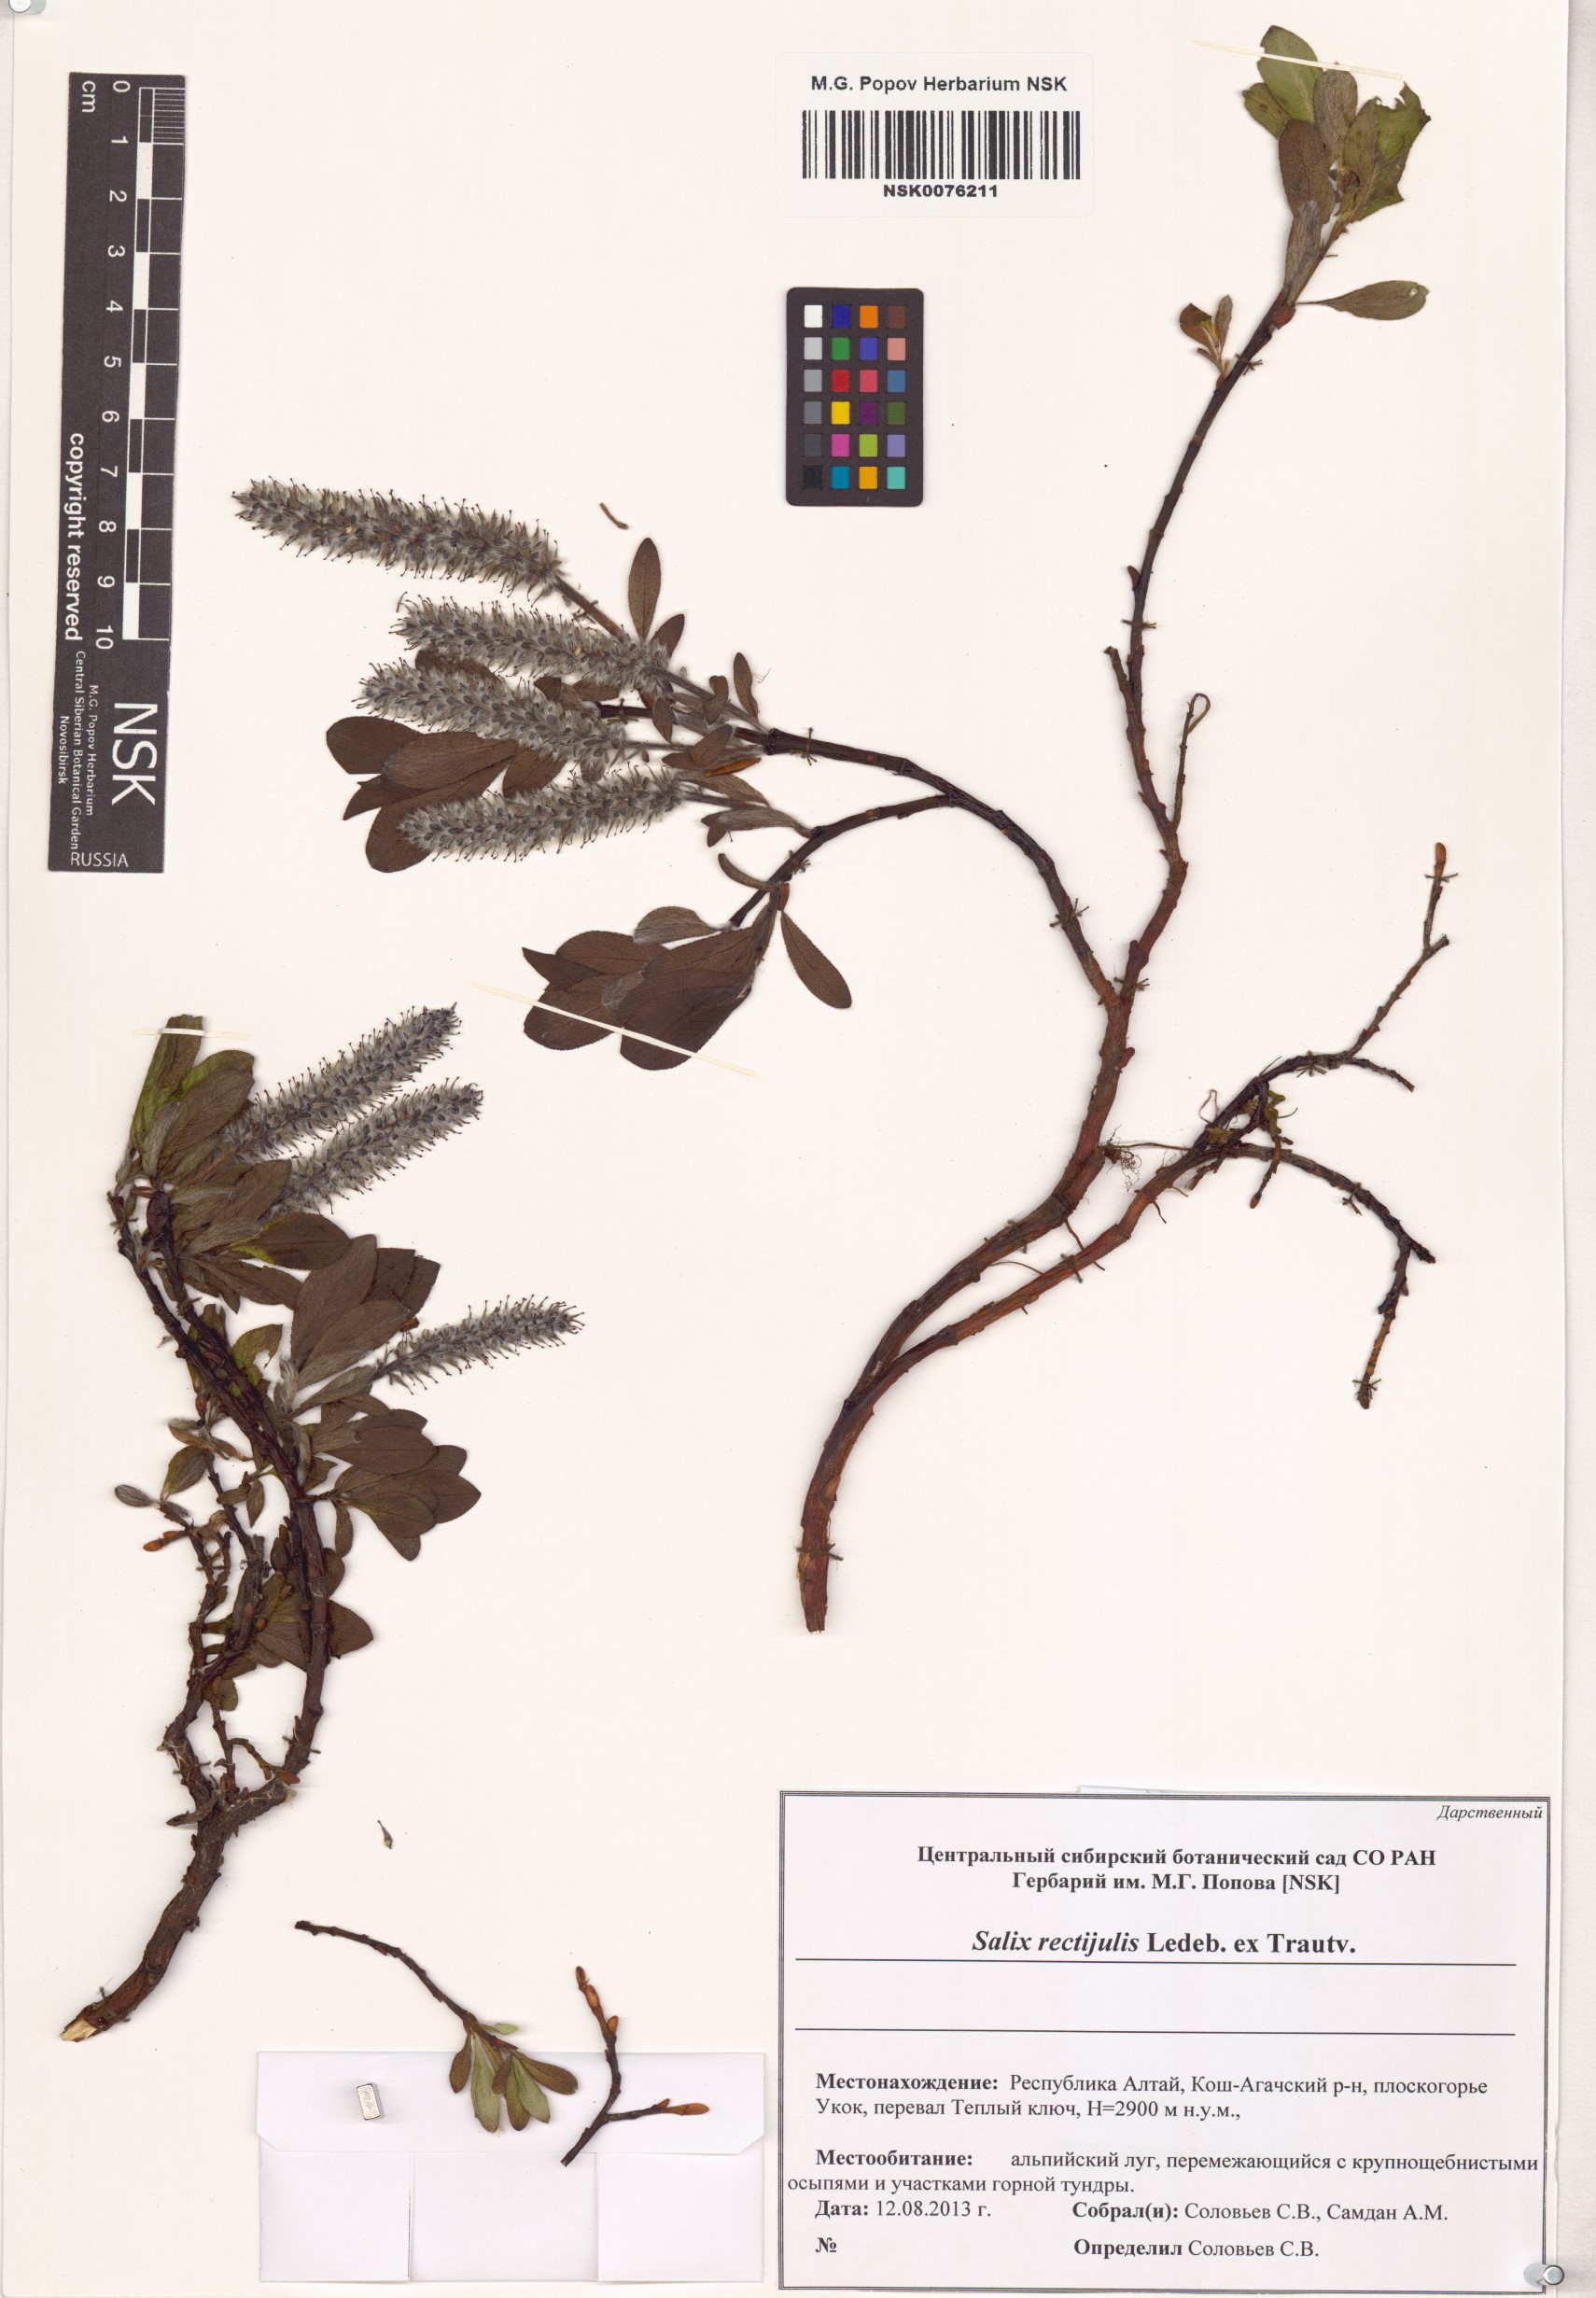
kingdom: Plantae
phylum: Tracheophyta
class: Magnoliopsida
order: Malpighiales
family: Salicaceae
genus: Salix
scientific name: Salix rectijulis
